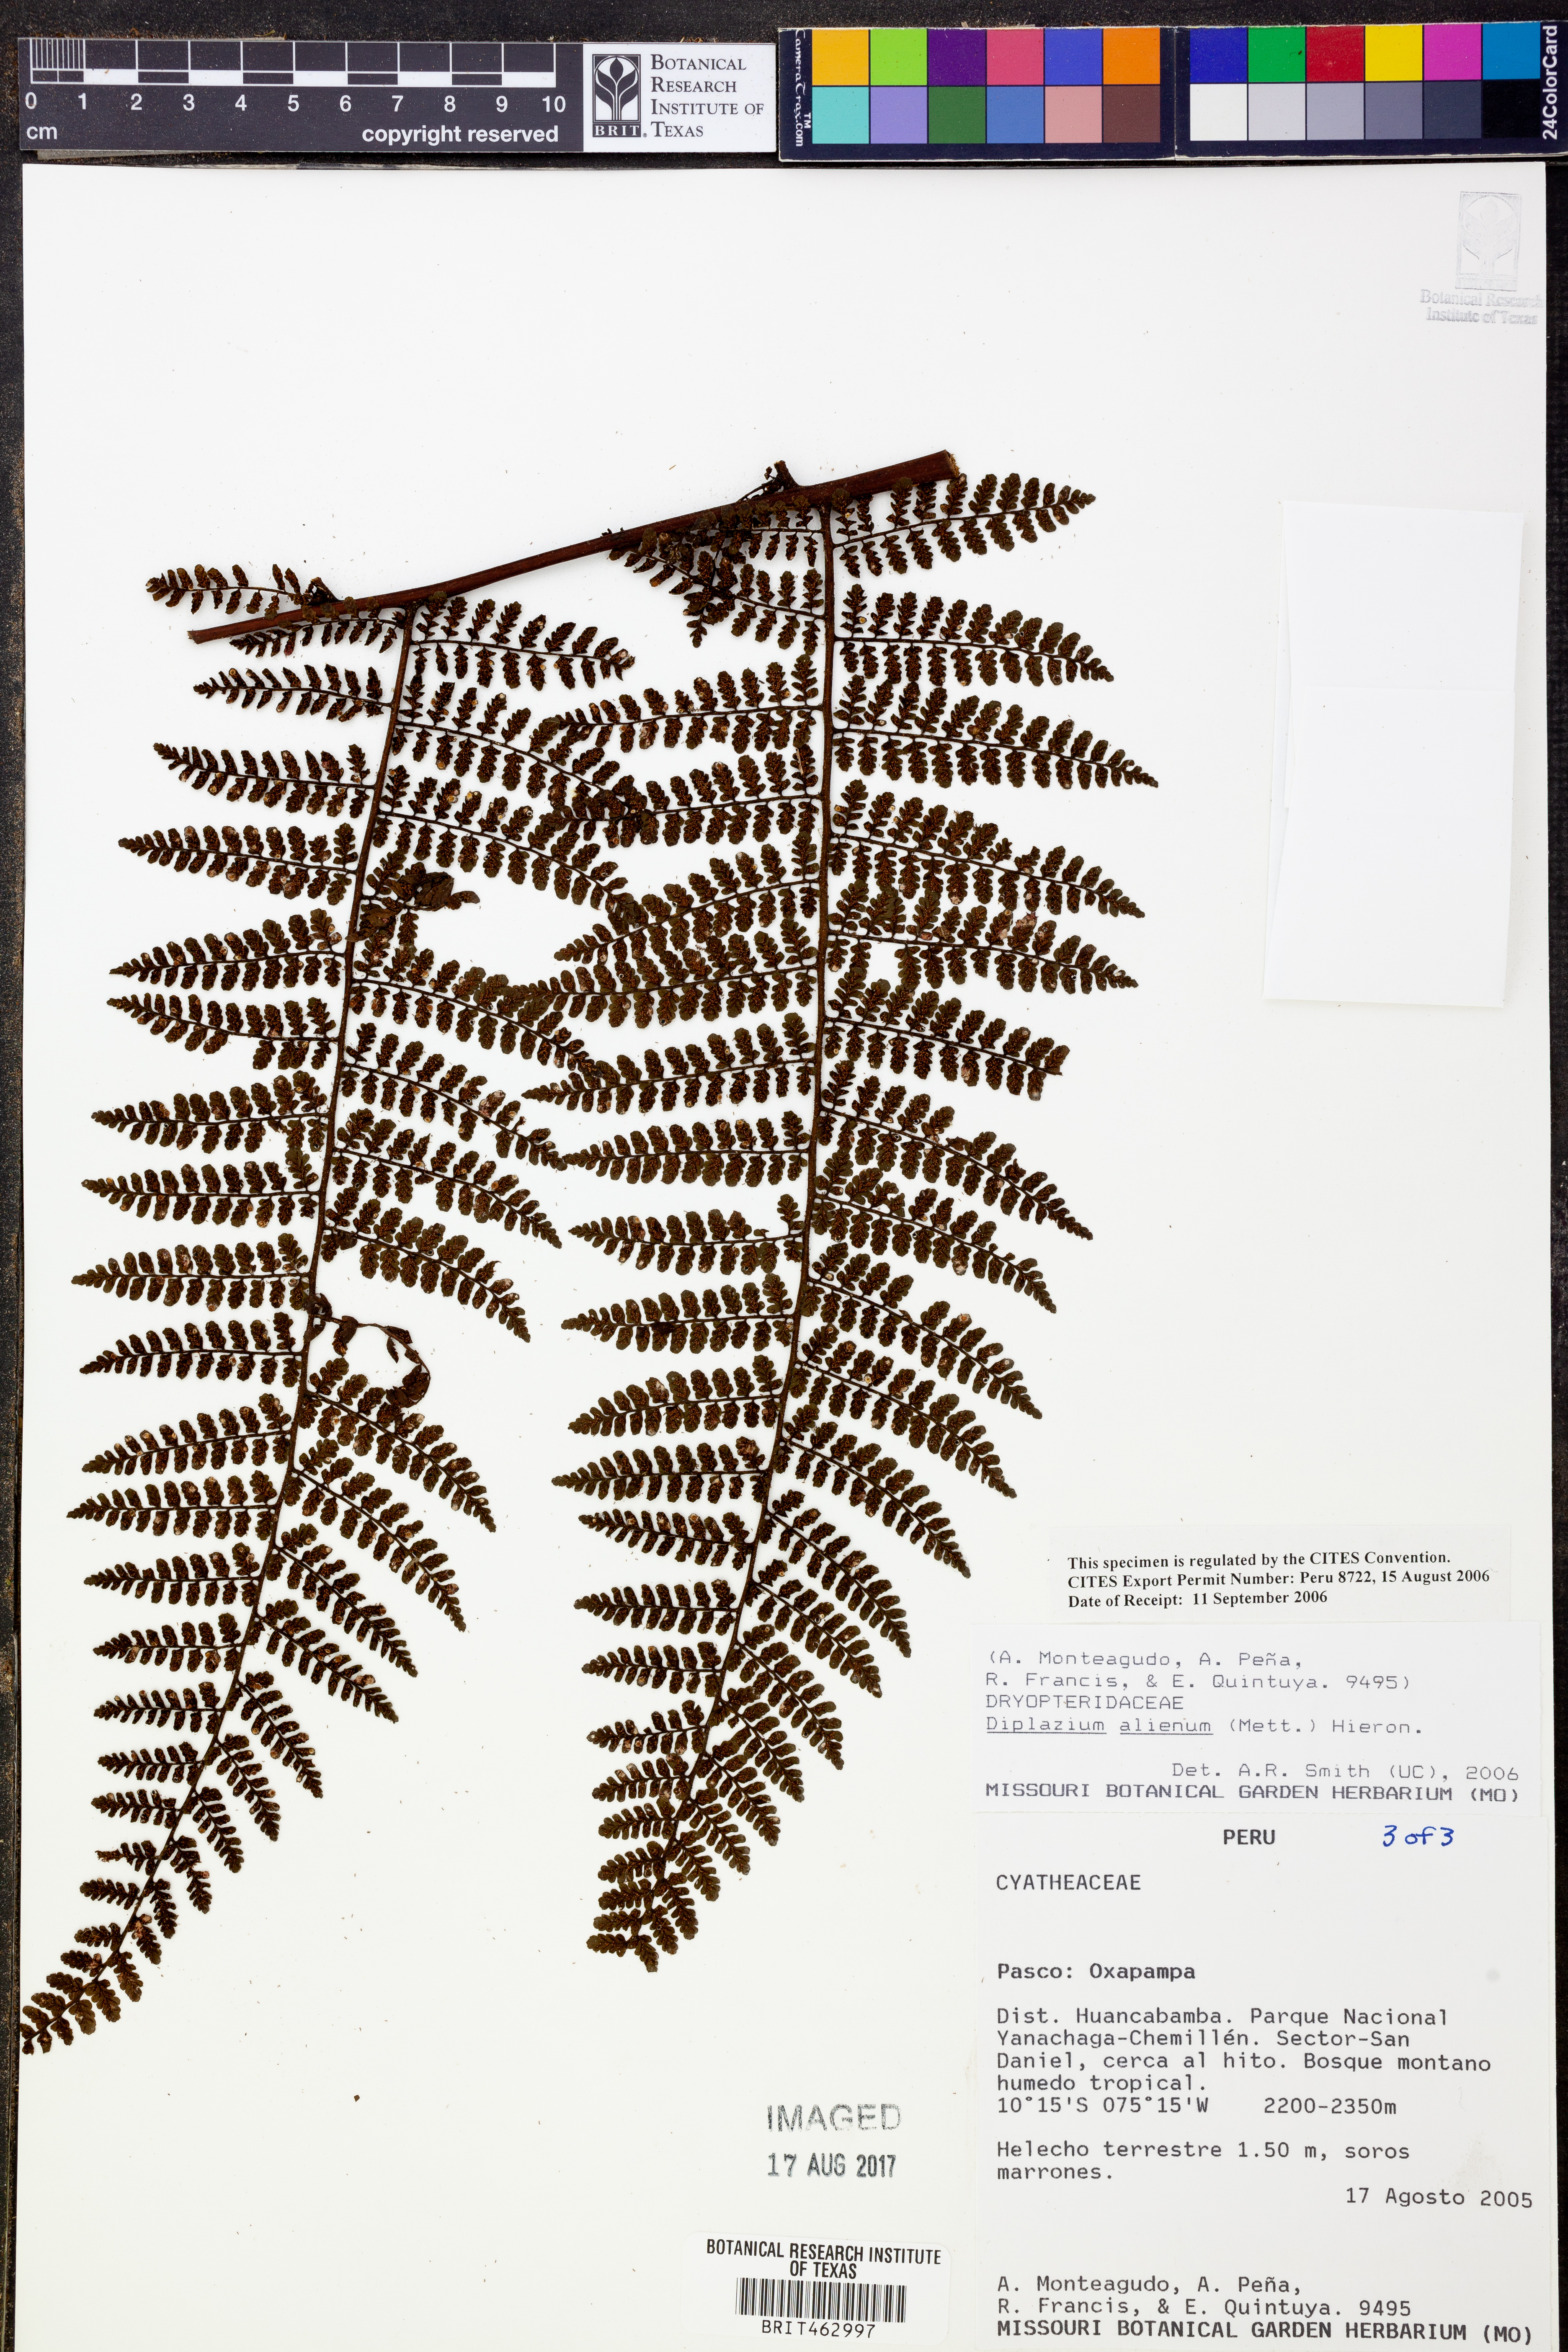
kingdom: Plantae
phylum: Tracheophyta
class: Polypodiopsida
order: Polypodiales
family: Athyriaceae
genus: Diplazium
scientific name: Diplazium alienum
